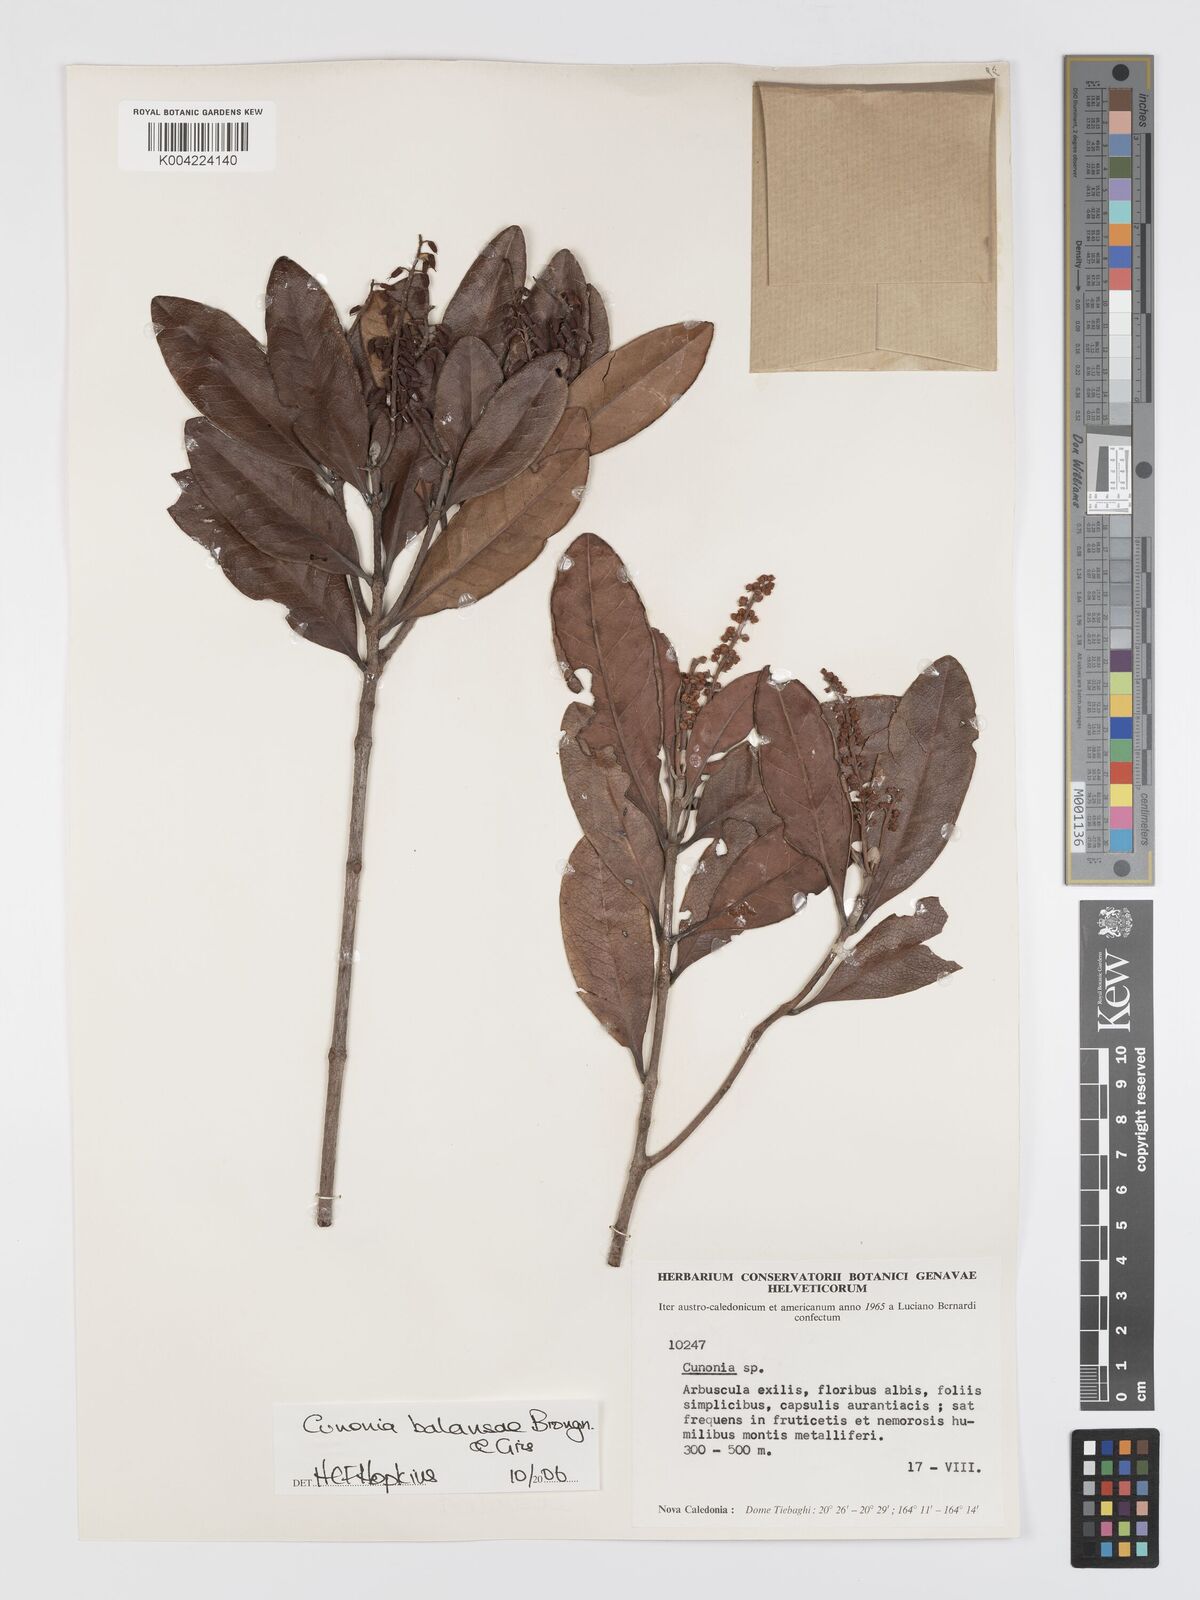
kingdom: Plantae
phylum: Tracheophyta
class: Magnoliopsida
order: Oxalidales
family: Cunoniaceae
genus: Cunonia
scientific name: Cunonia balansae
